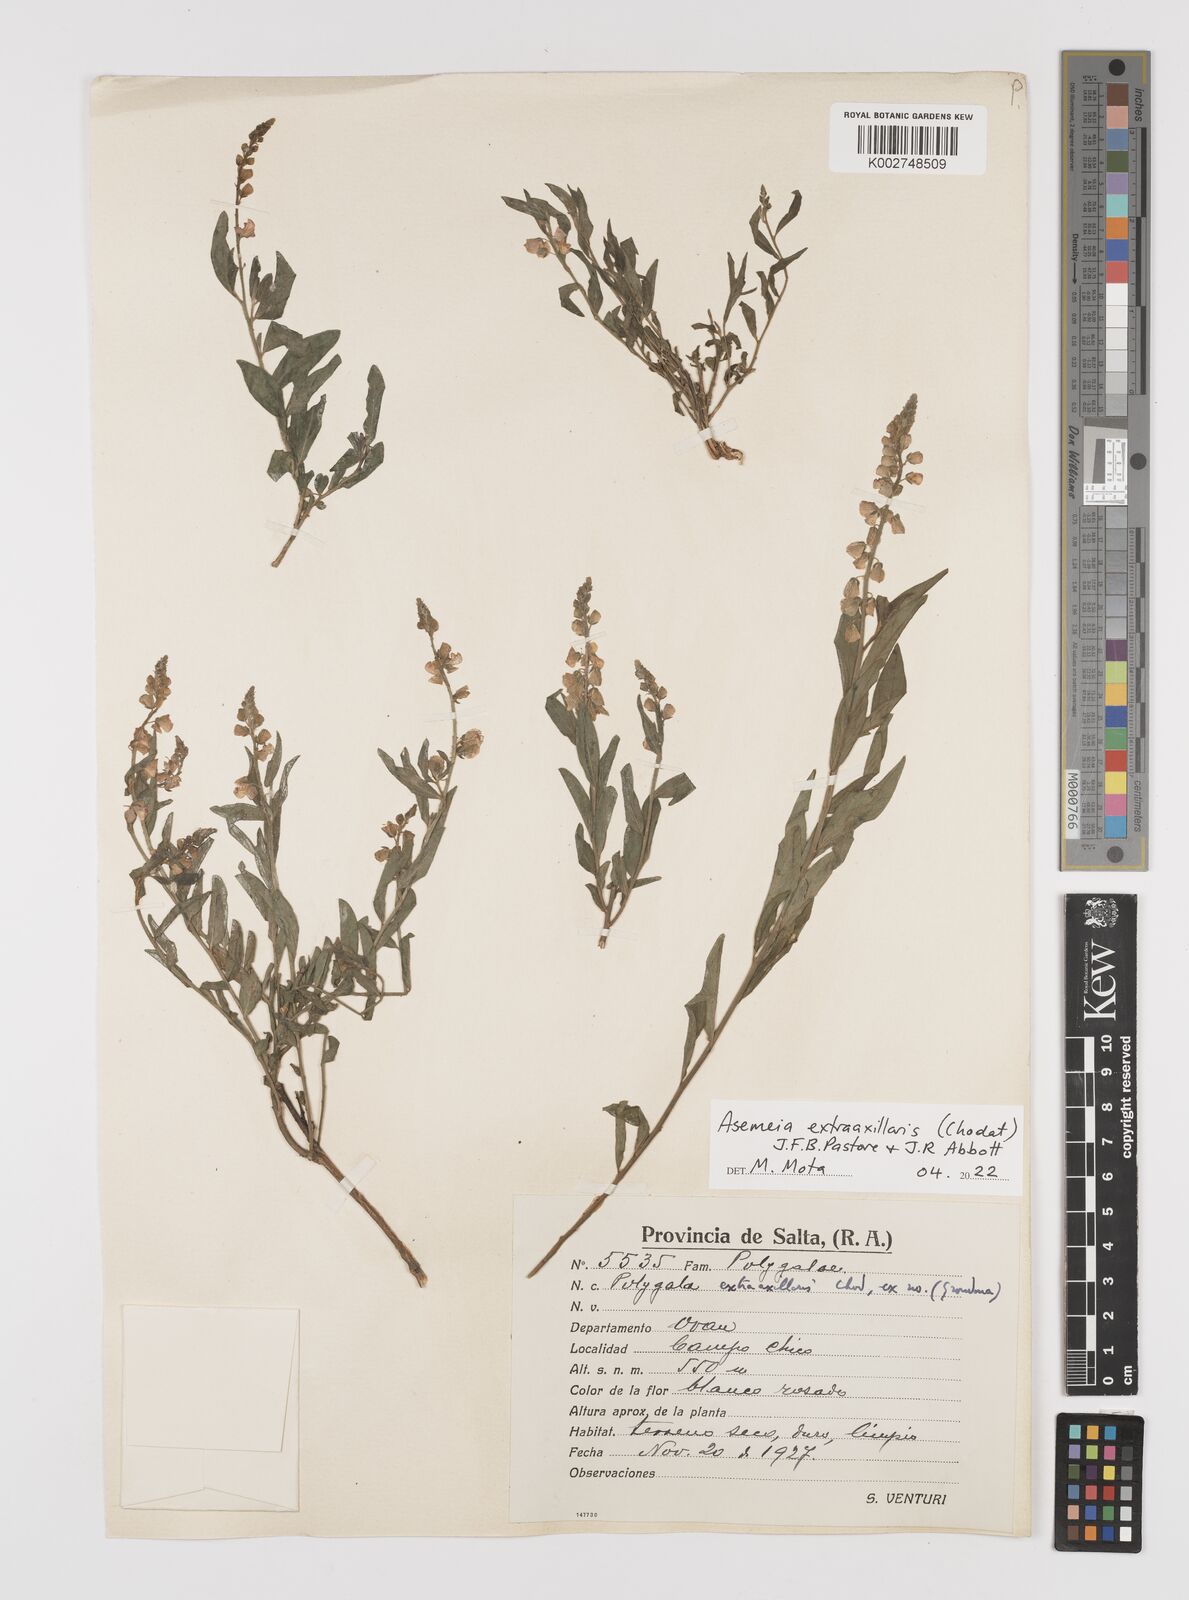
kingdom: Plantae
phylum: Tracheophyta
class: Magnoliopsida
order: Fabales
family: Polygalaceae
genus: Asemeia
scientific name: Asemeia extraaxillaris
